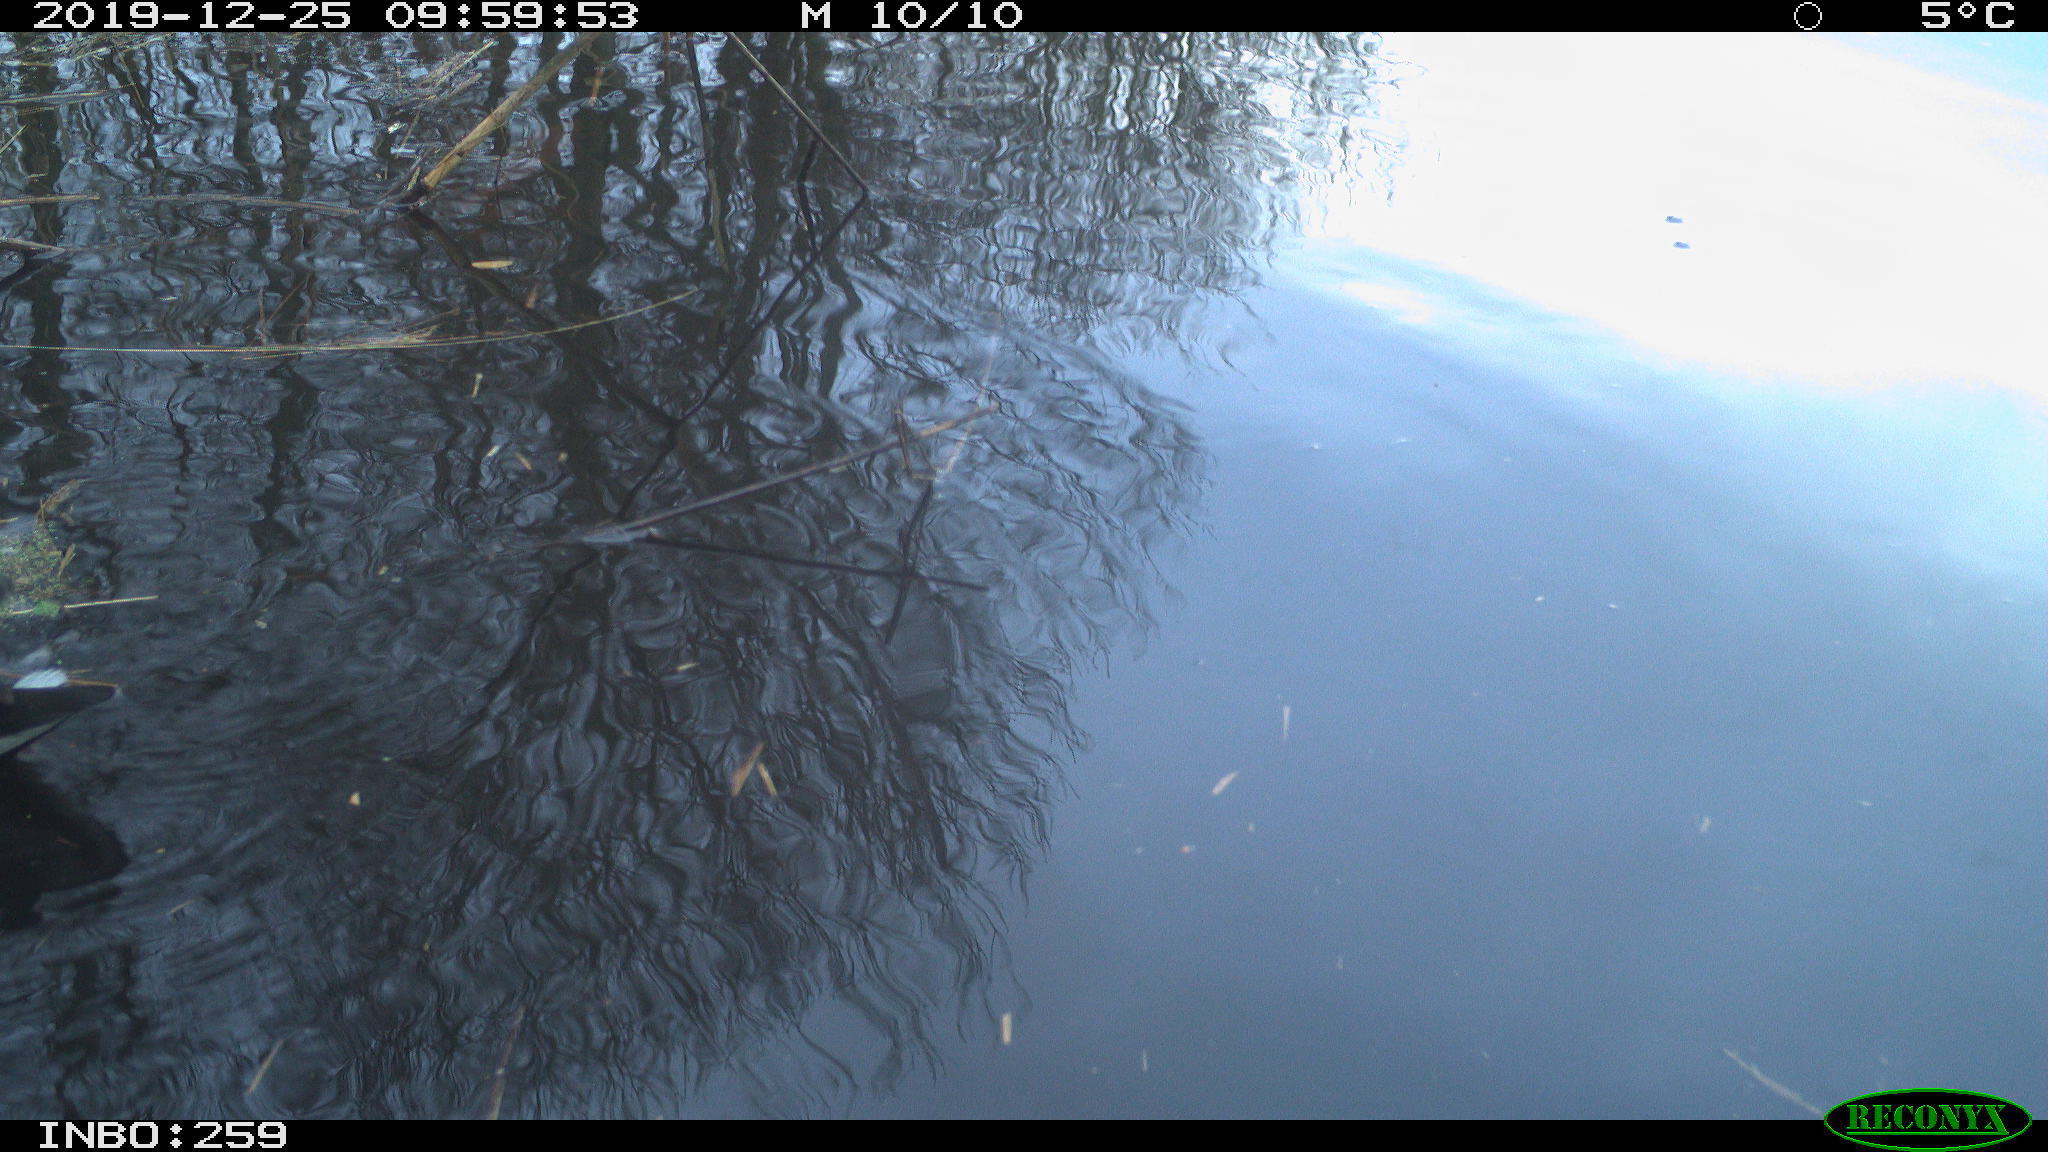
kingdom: Animalia
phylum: Chordata
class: Aves
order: Gruiformes
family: Rallidae
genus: Gallinula
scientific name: Gallinula chloropus
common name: Common moorhen
